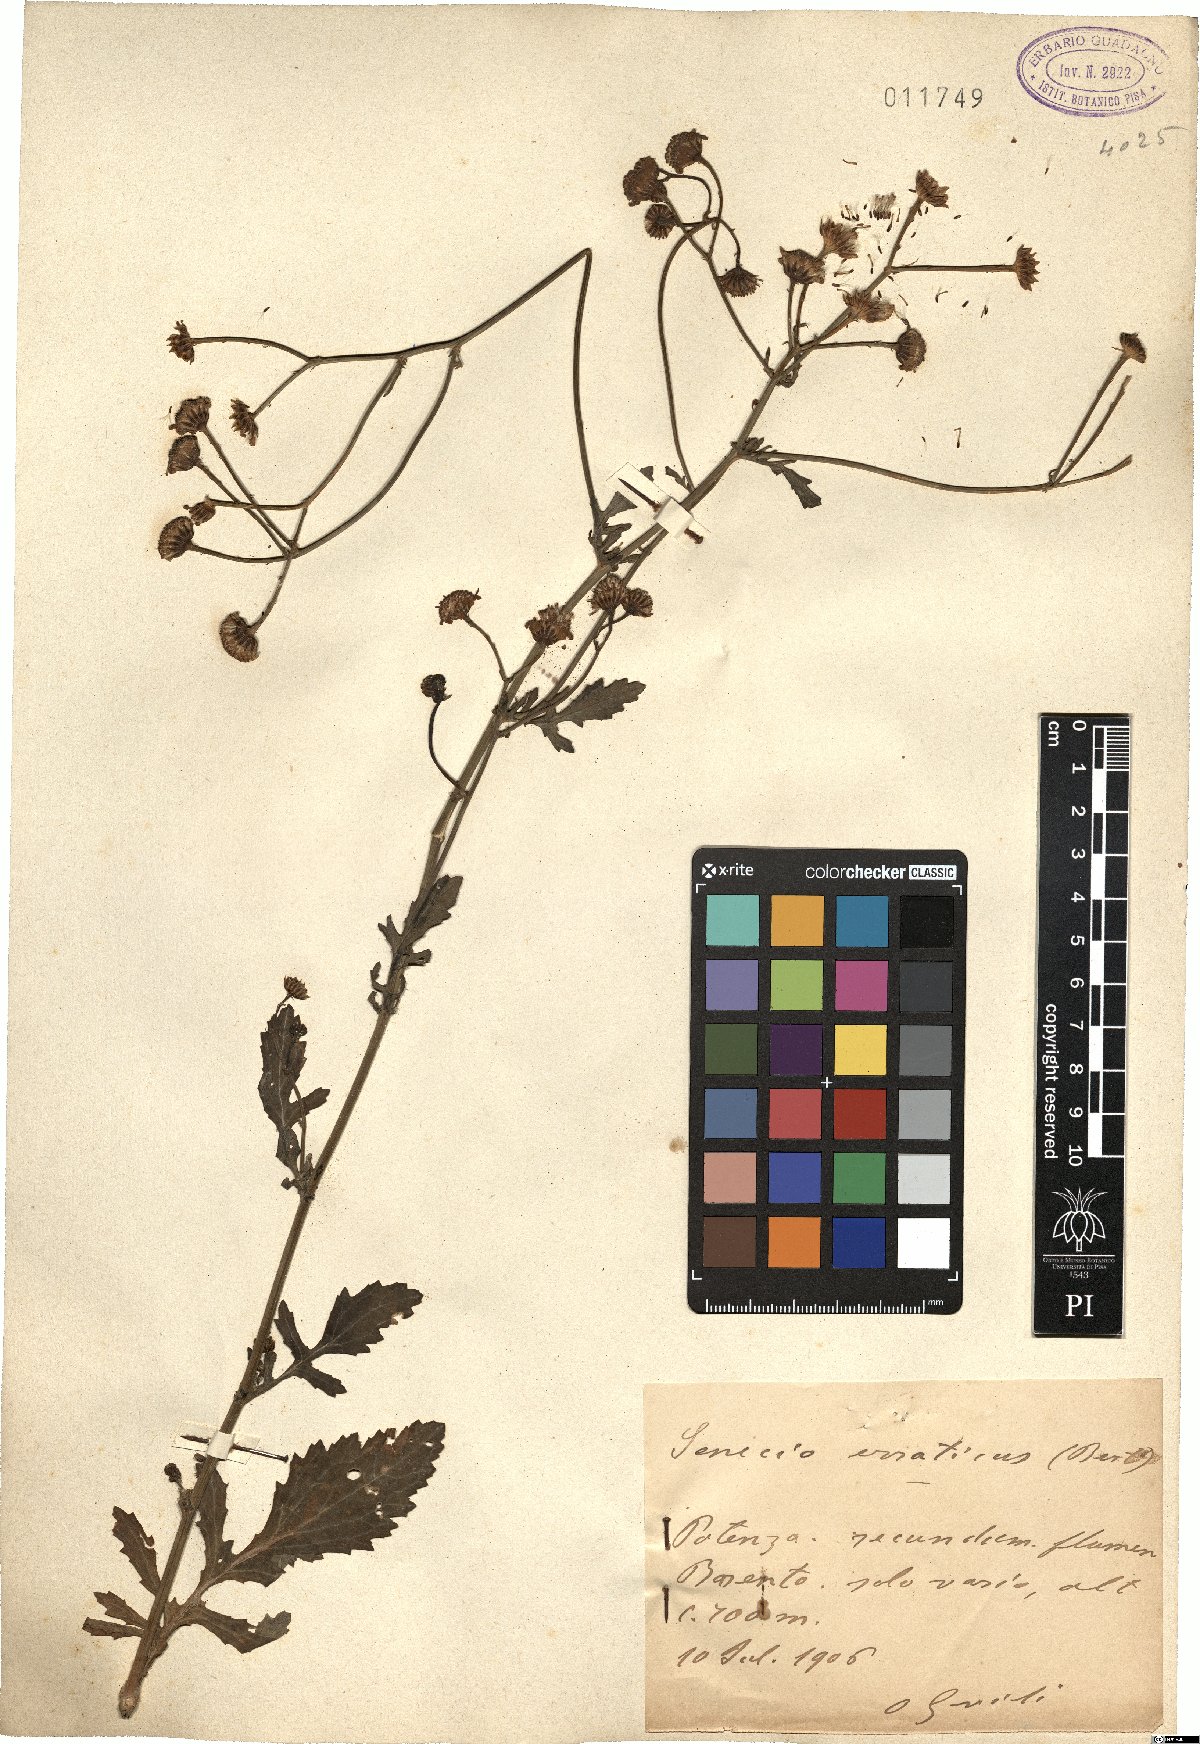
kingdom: Plantae
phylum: Tracheophyta
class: Magnoliopsida
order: Asterales
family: Asteraceae
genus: Jacobaea
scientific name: Jacobaea erratica
